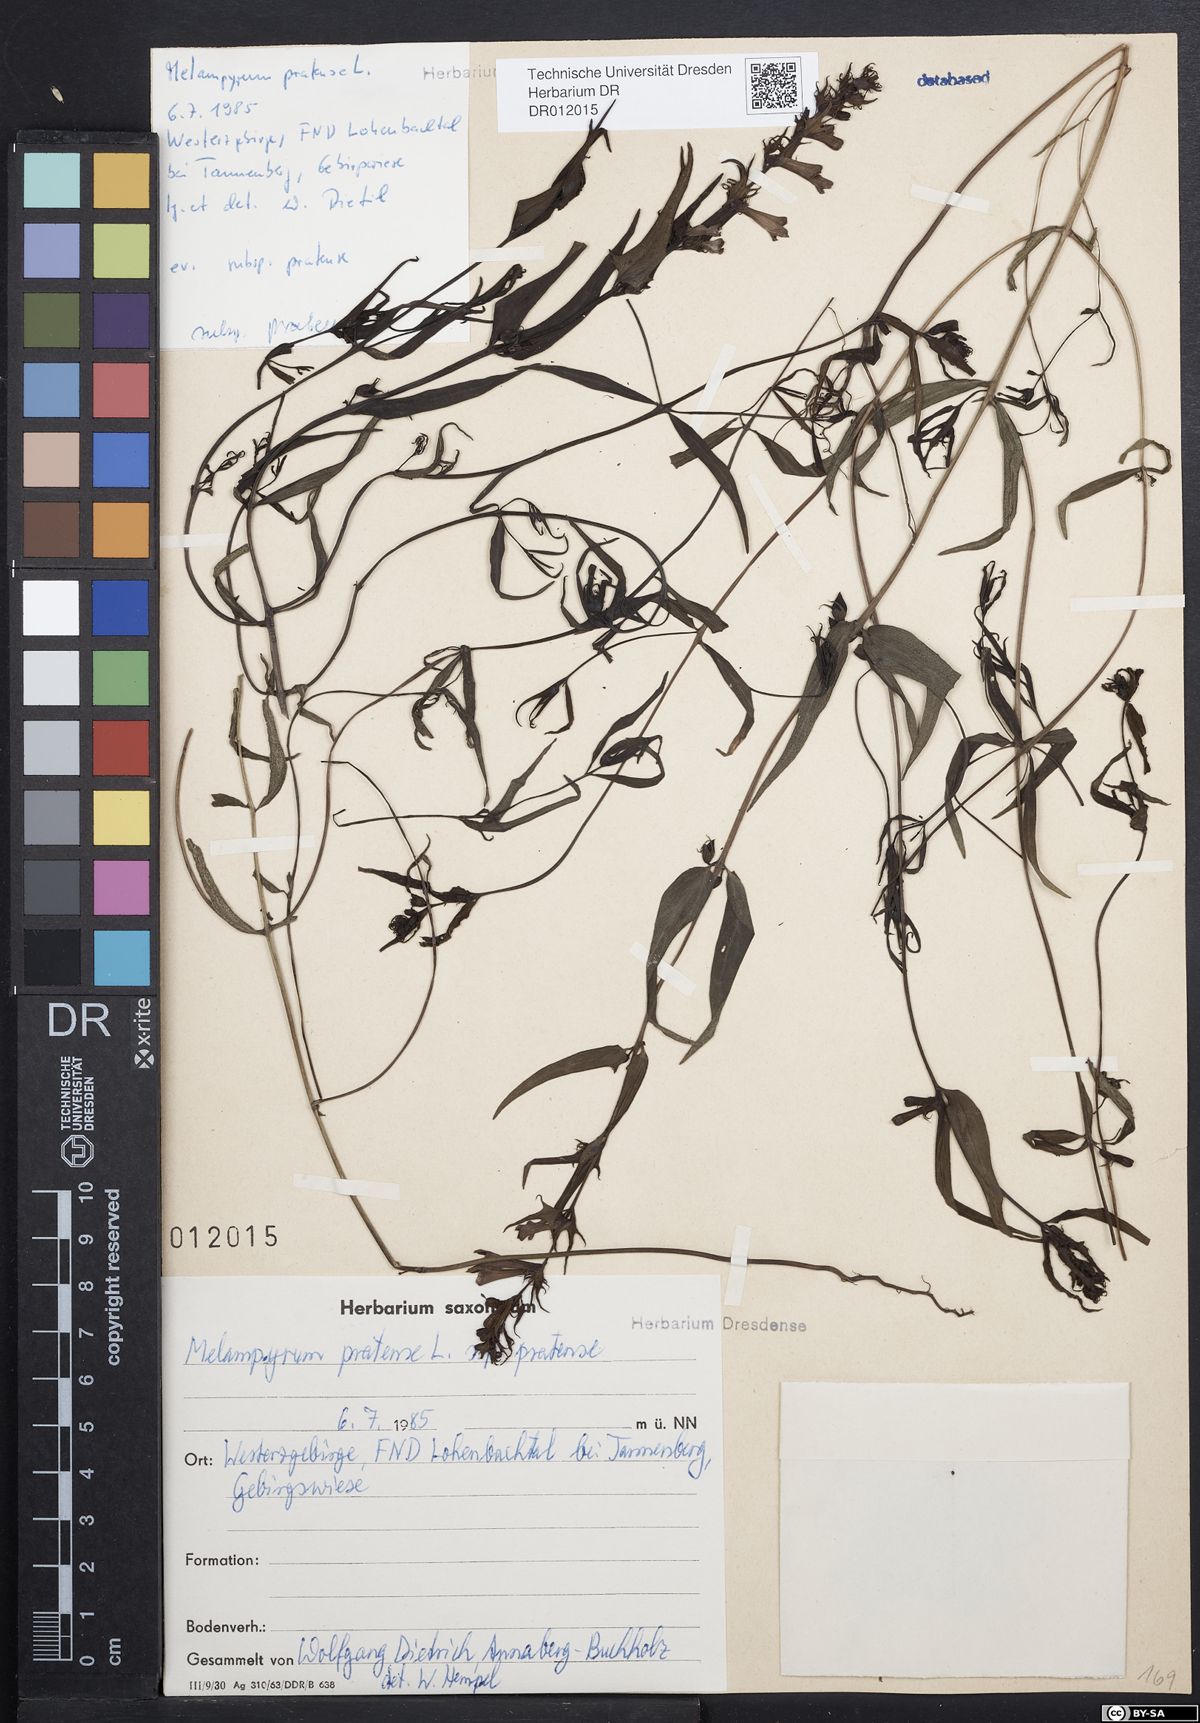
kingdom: Plantae
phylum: Tracheophyta
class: Magnoliopsida
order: Lamiales
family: Orobanchaceae
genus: Melampyrum
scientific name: Melampyrum pratense
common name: Common cow-wheat
